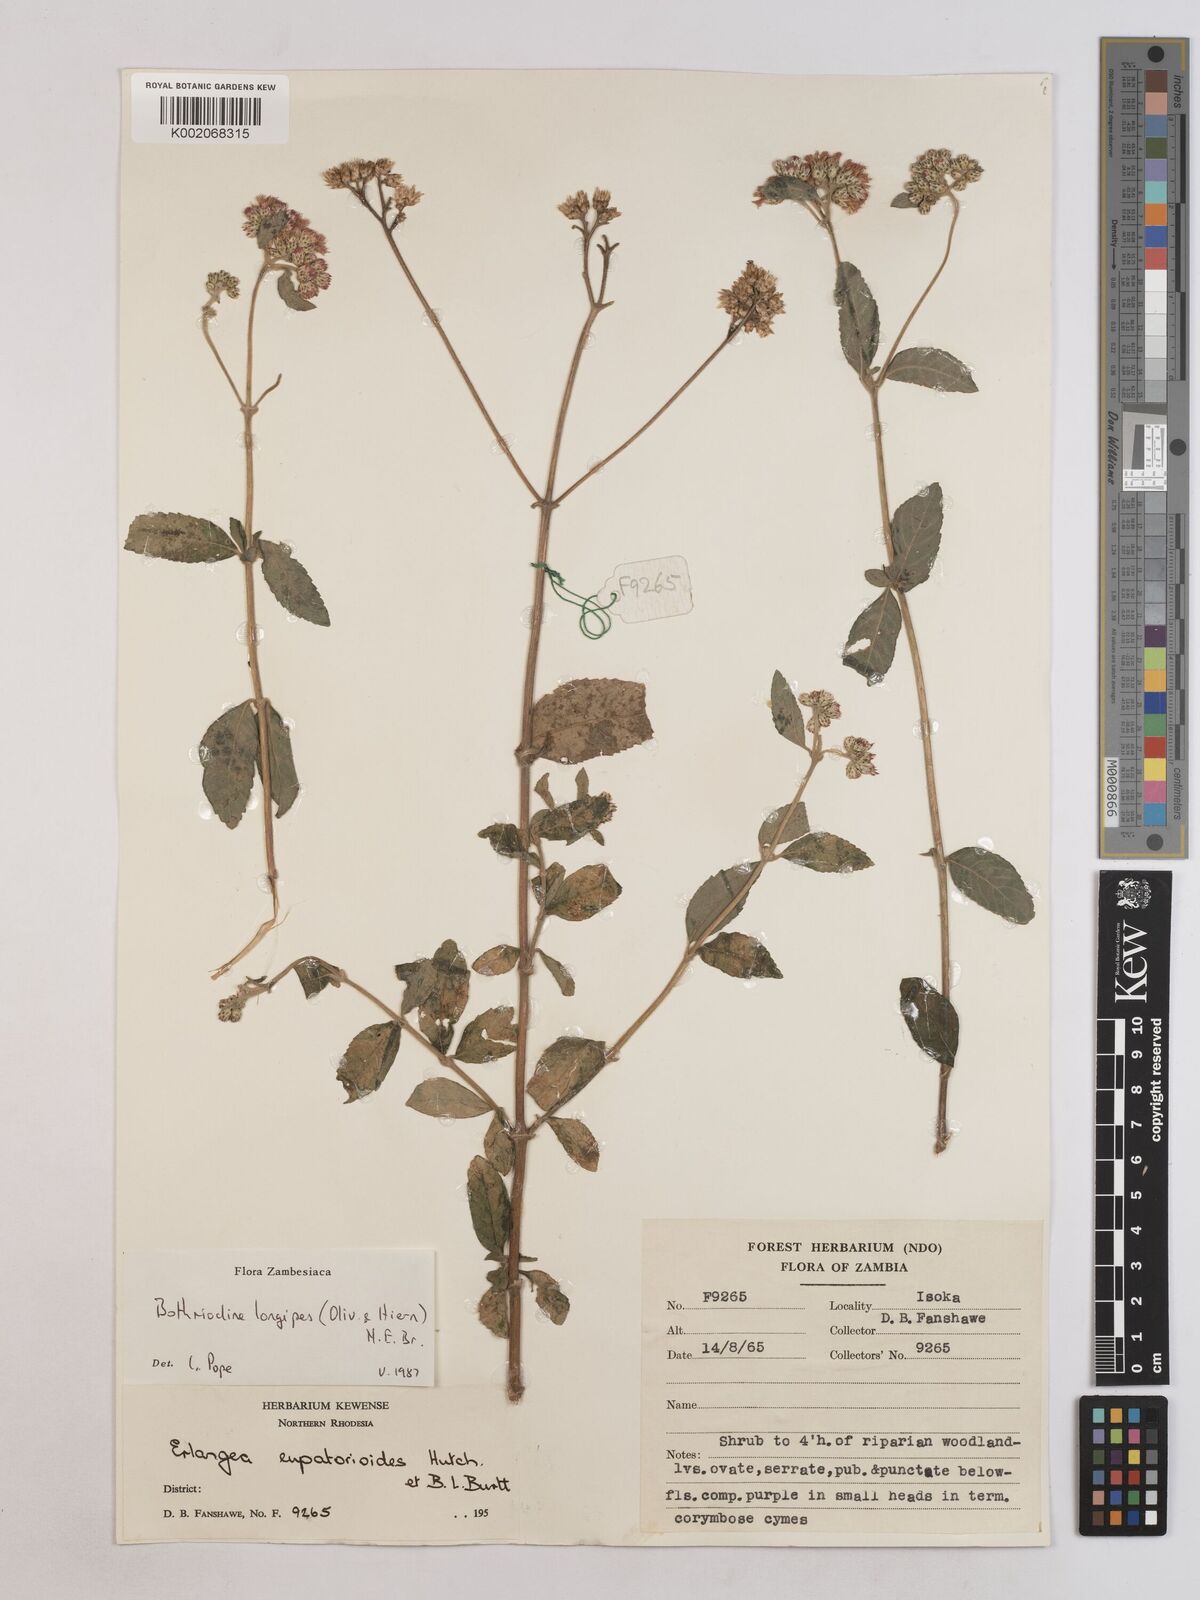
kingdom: Plantae
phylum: Tracheophyta
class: Magnoliopsida
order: Asterales
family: Asteraceae
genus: Bothriocline
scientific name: Bothriocline longipes
